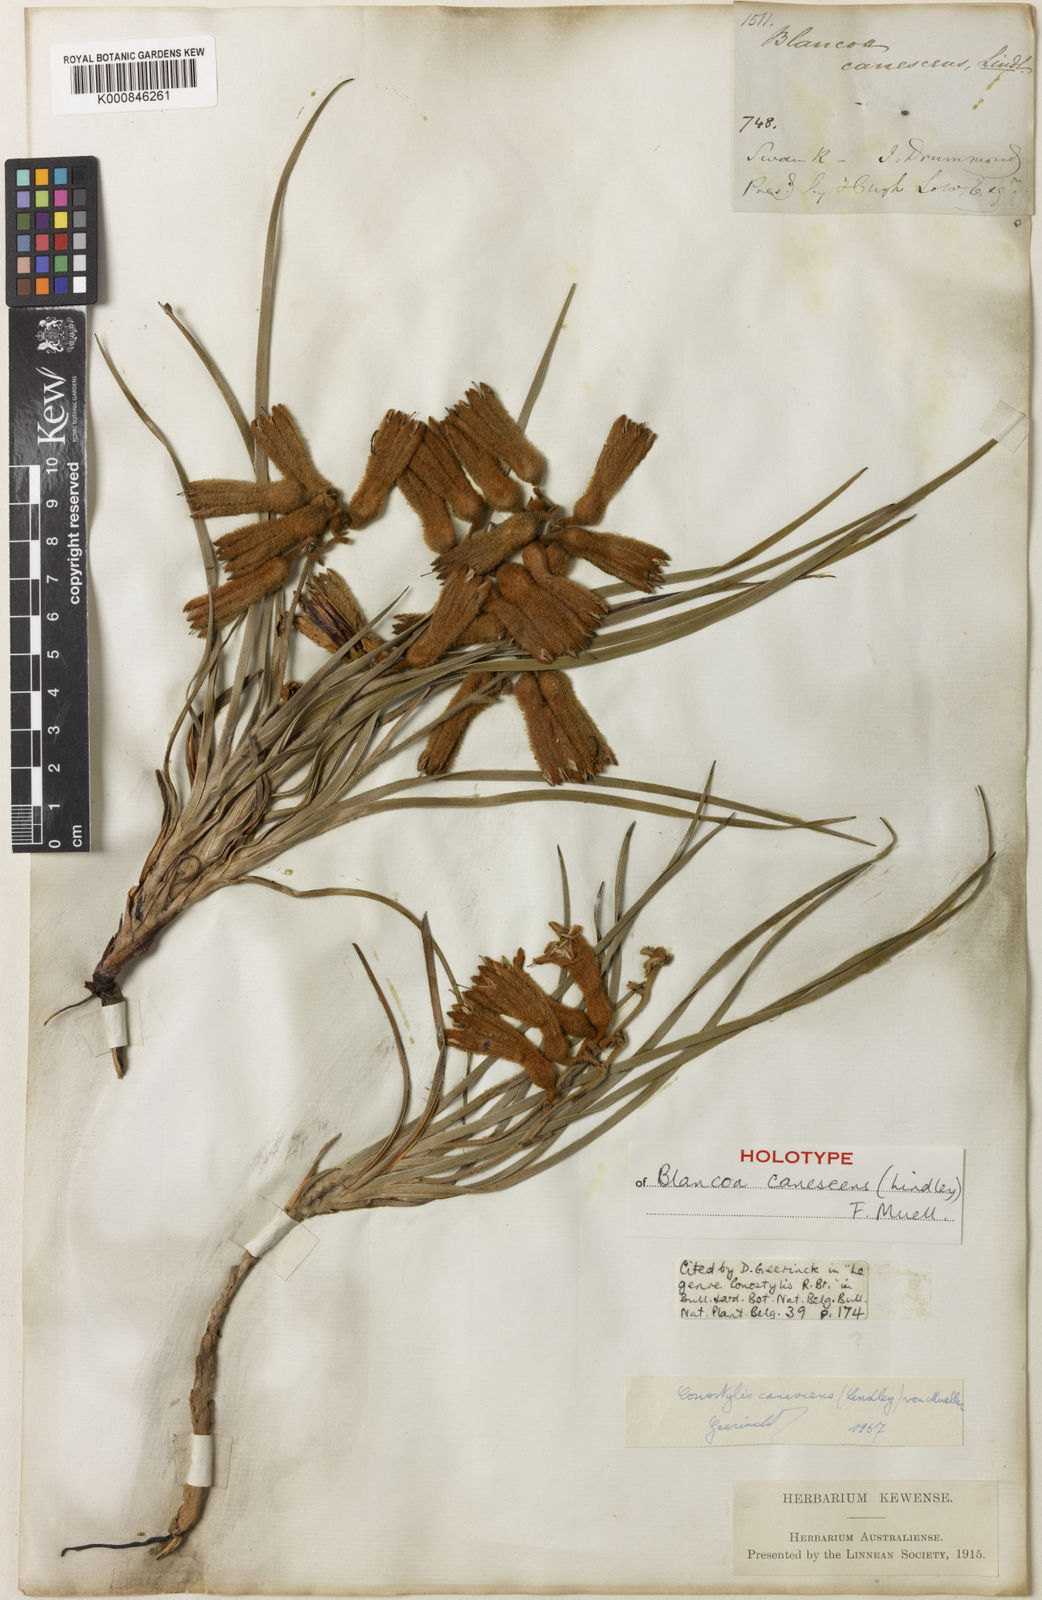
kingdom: Plantae
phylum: Tracheophyta
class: Liliopsida
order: Commelinales
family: Haemodoraceae
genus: Blancoa
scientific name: Blancoa canescens
